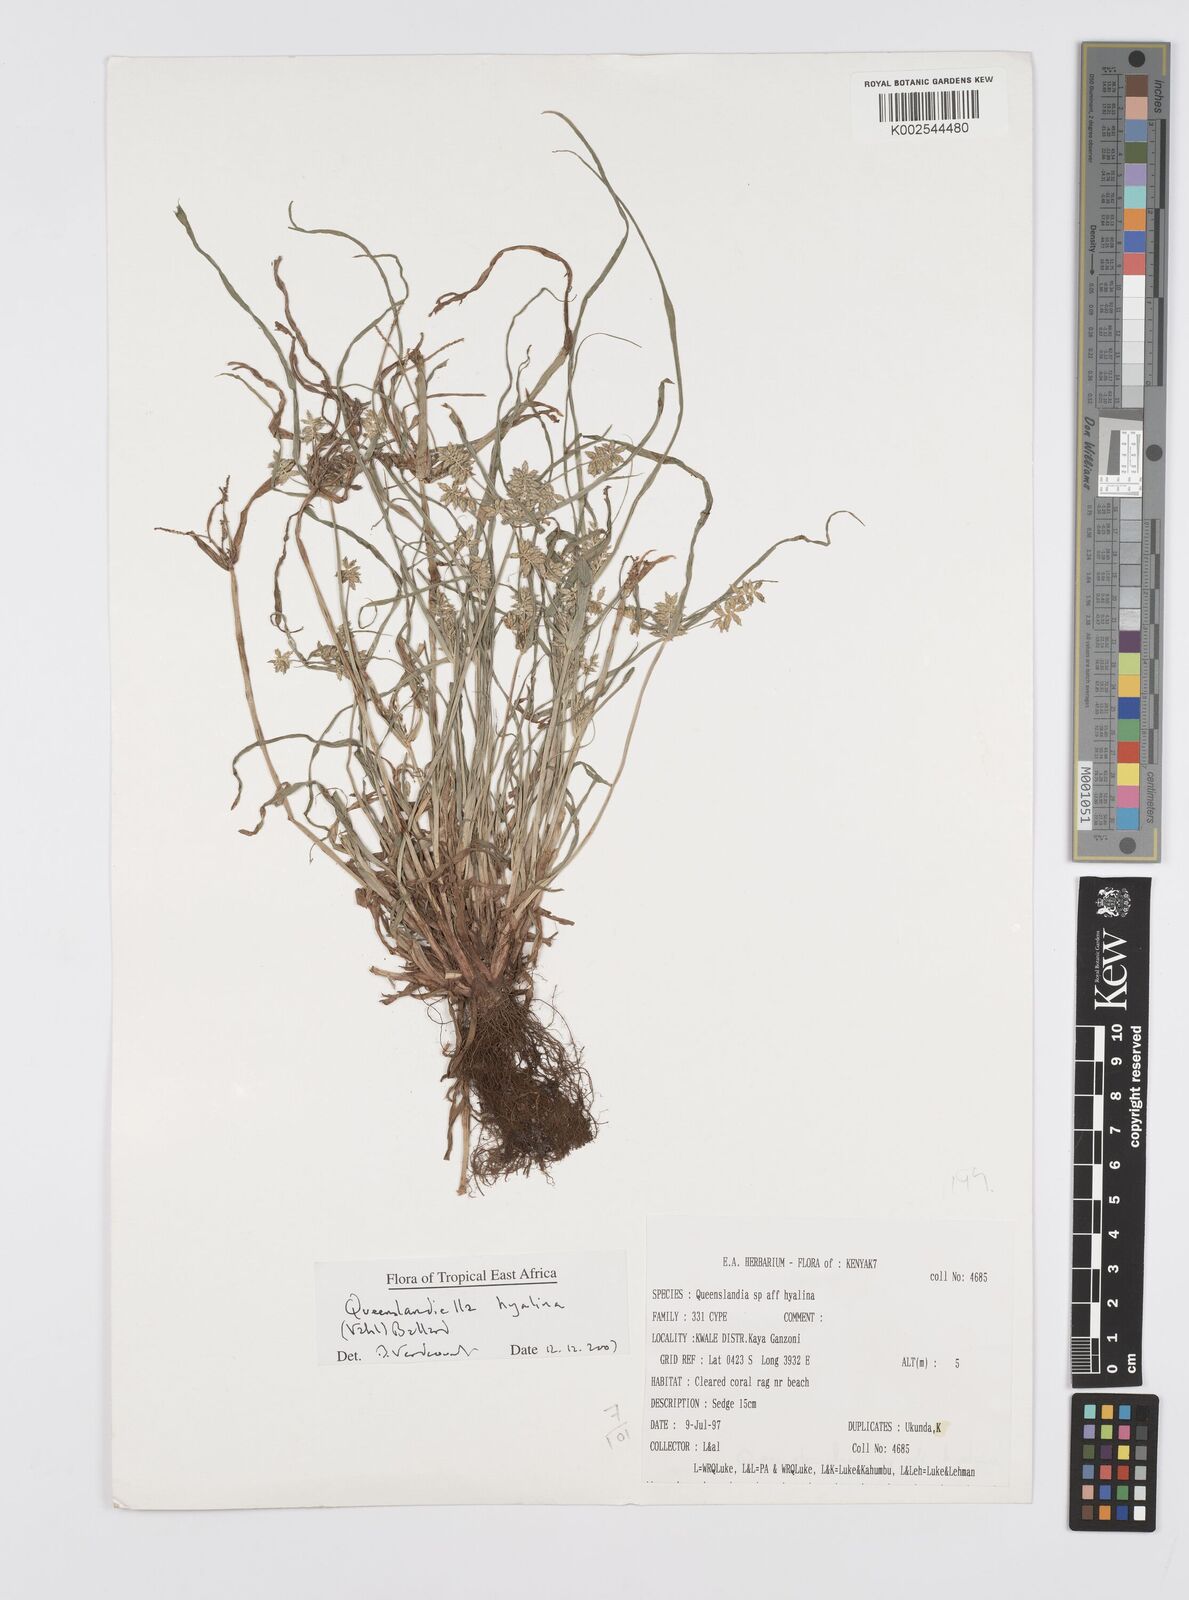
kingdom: Plantae
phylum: Tracheophyta
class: Liliopsida
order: Poales
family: Cyperaceae
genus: Cyperus
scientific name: Cyperus hyalinus
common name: Queensland sedge
